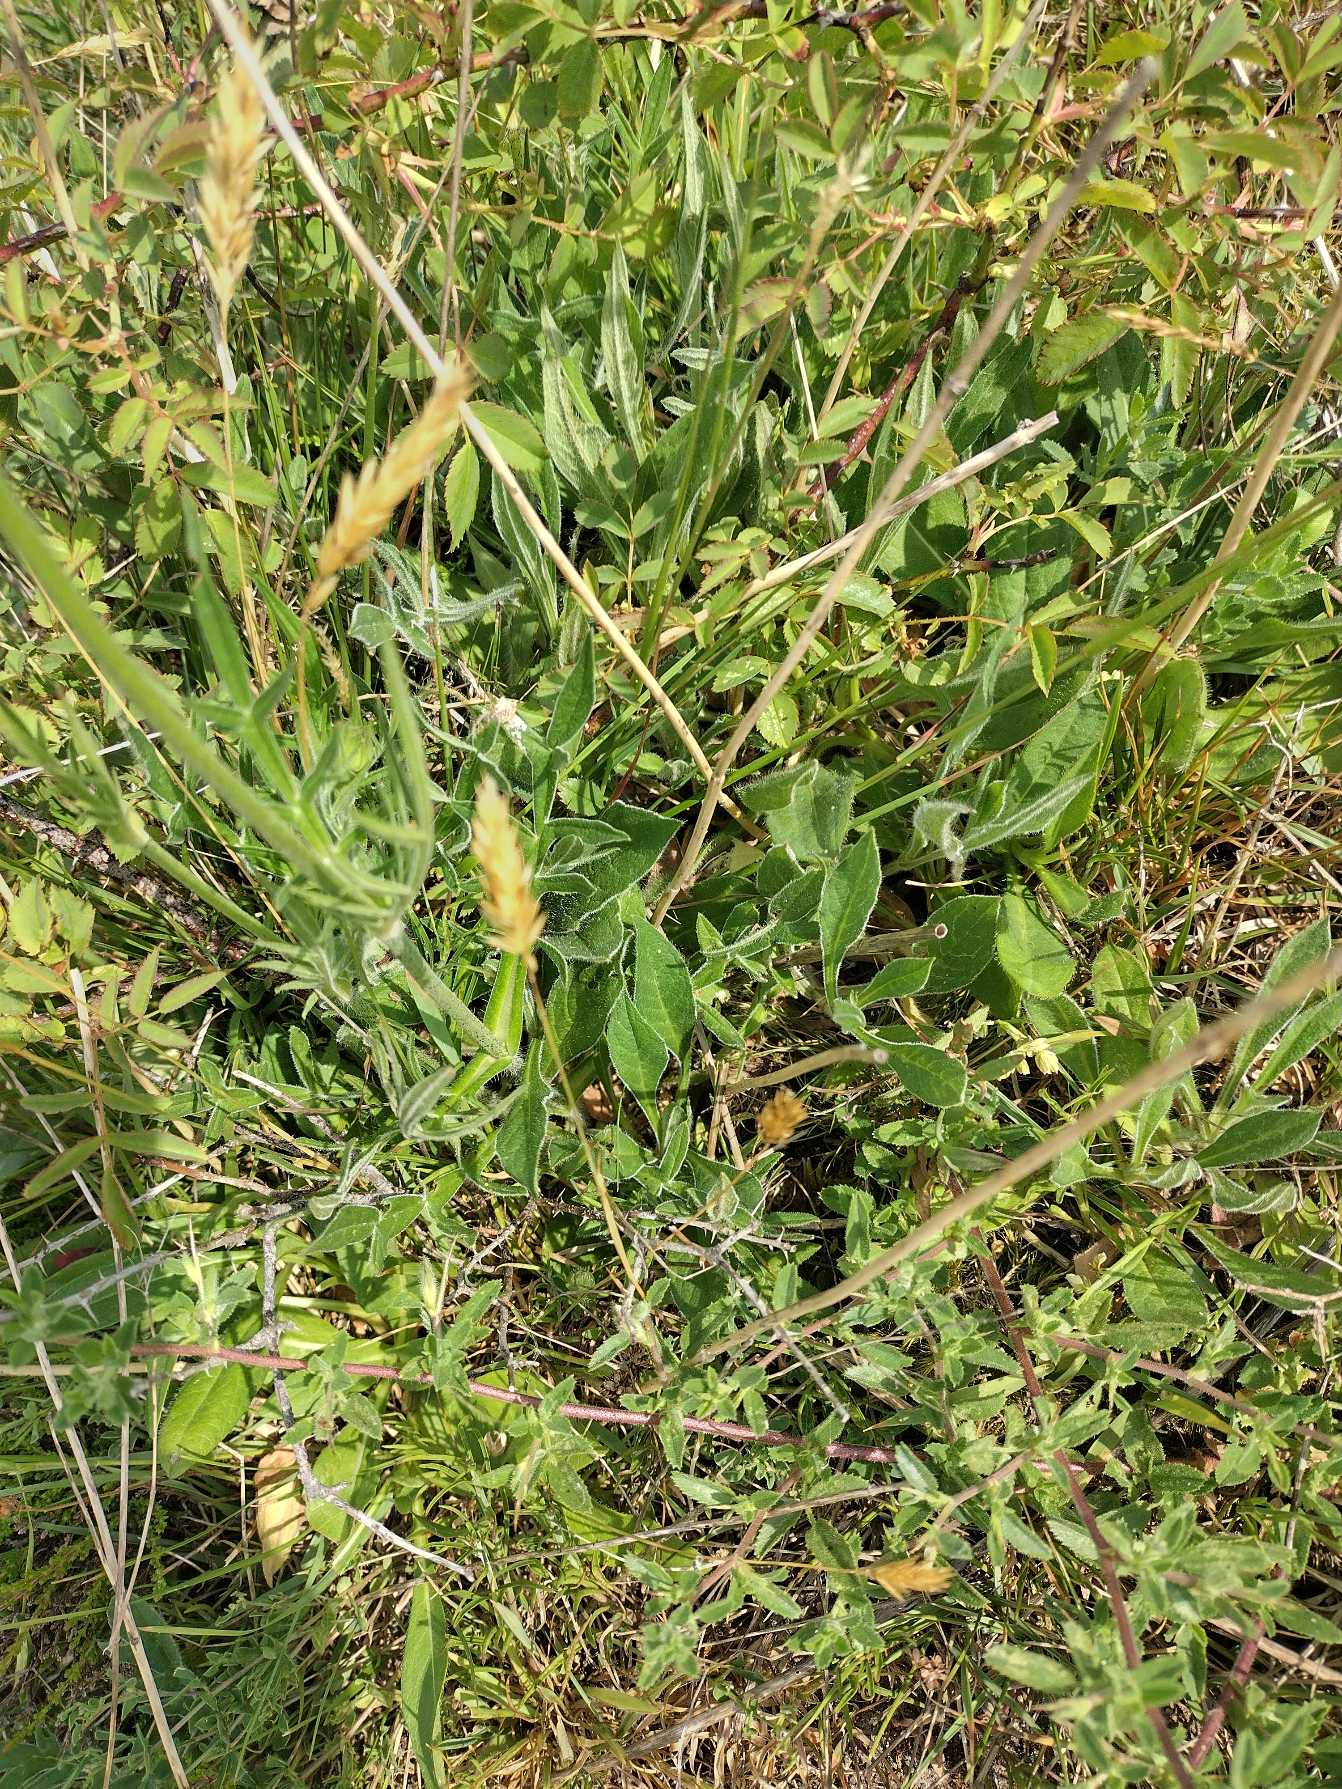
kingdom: Plantae
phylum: Tracheophyta
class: Magnoliopsida
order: Dipsacales
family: Caprifoliaceae
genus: Knautia
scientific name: Knautia arvensis
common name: Blåhat
